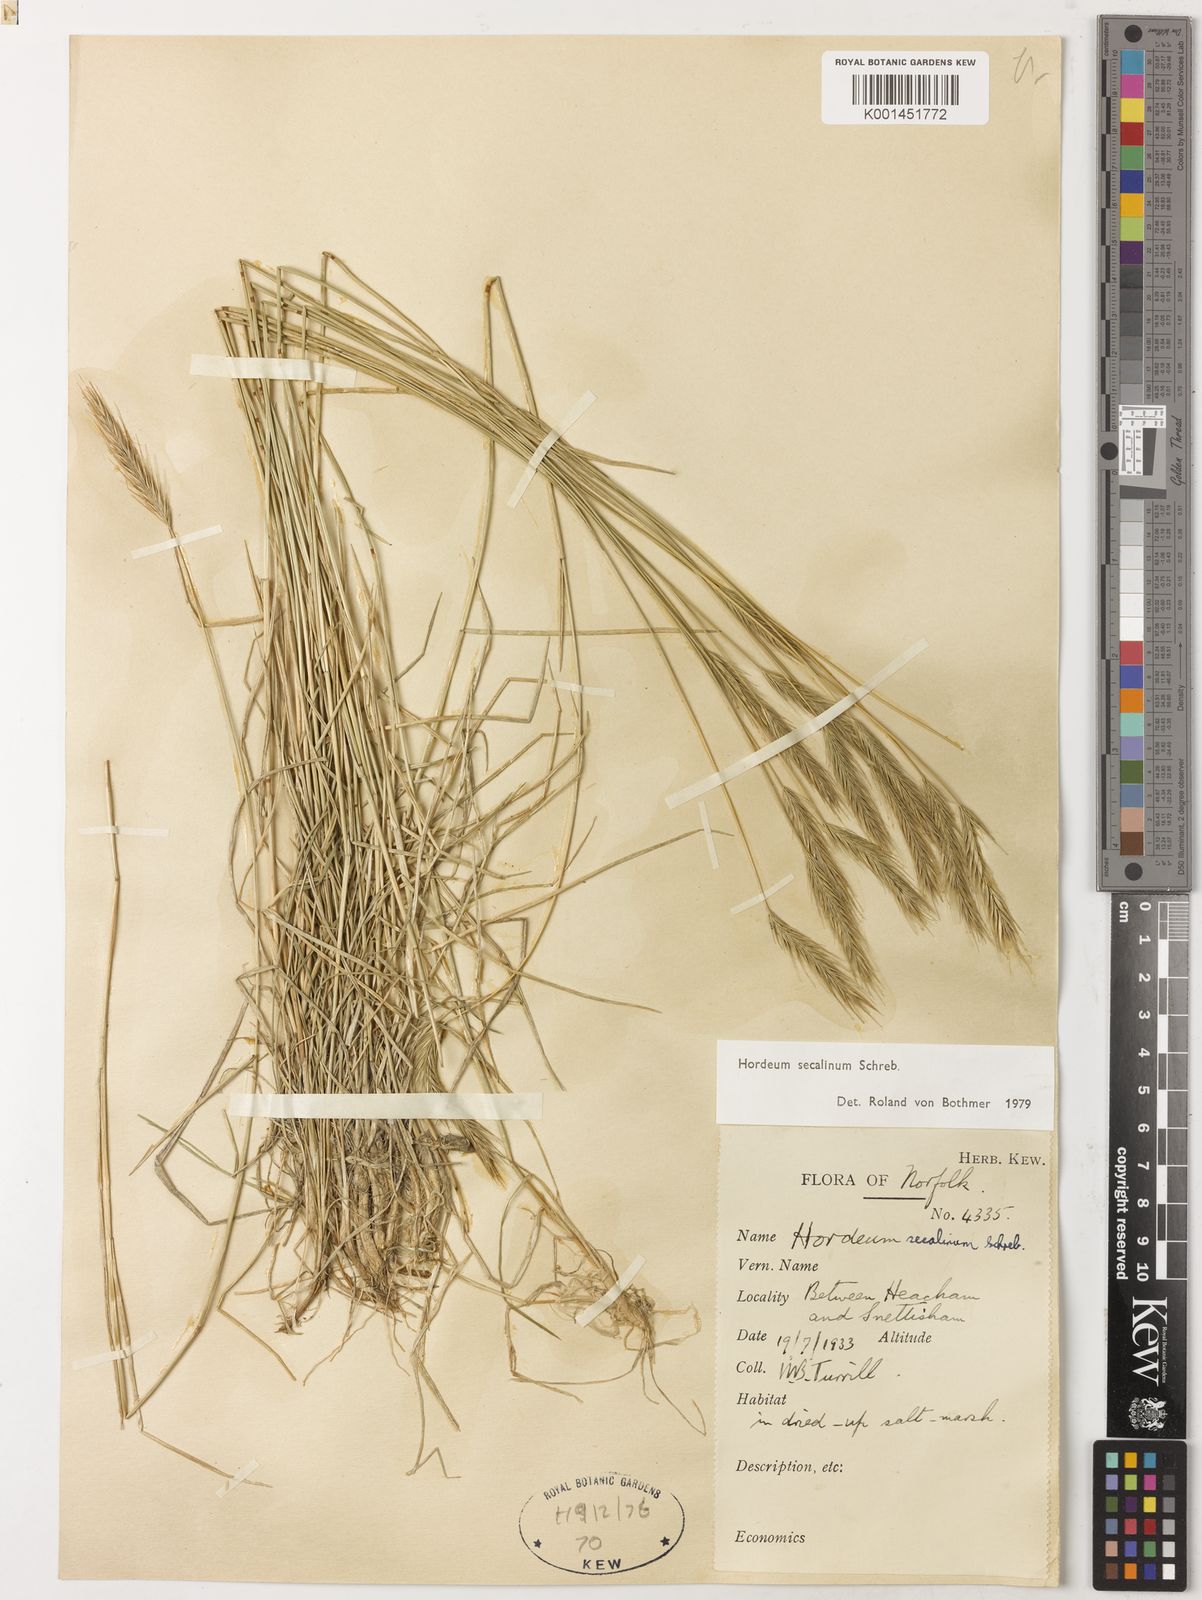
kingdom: Plantae
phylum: Tracheophyta
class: Liliopsida
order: Poales
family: Poaceae
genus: Hordeum
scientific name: Hordeum secalinum
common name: Meadow barley
